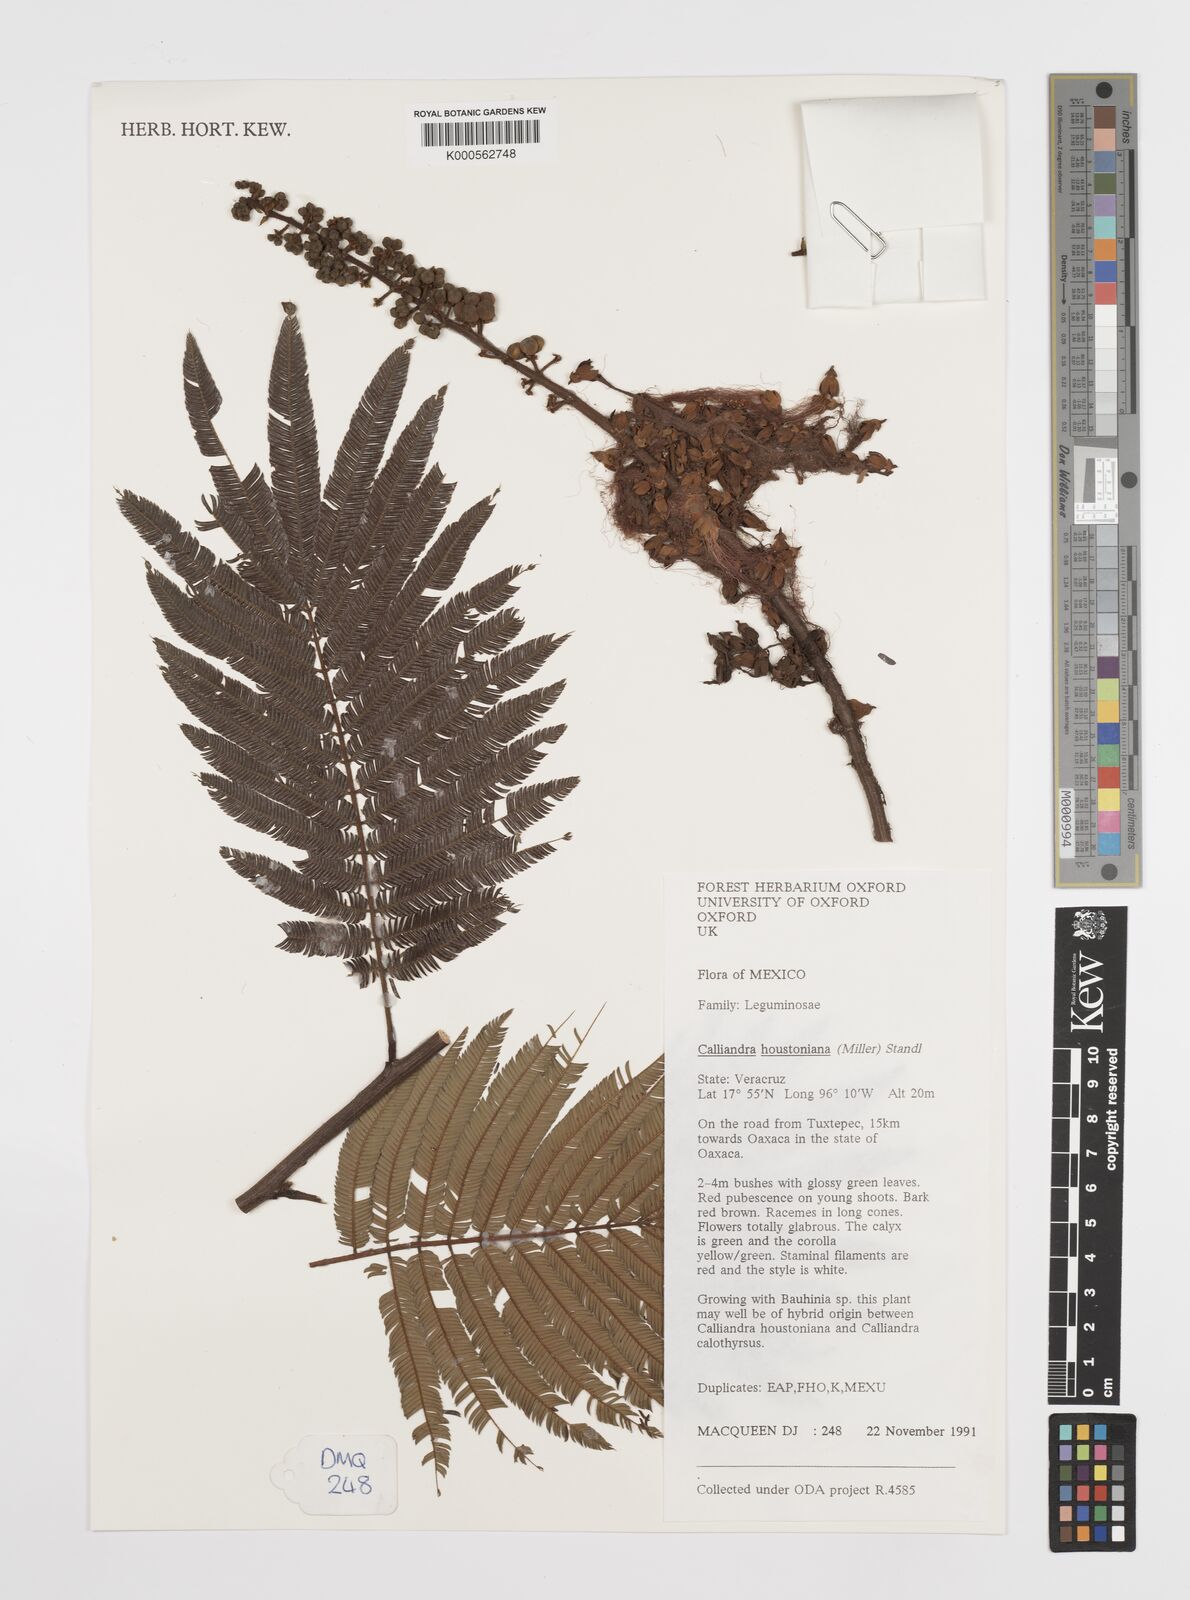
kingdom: Plantae
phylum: Tracheophyta
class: Magnoliopsida
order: Fabales
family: Fabaceae
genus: Calliandra
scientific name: Calliandra houstoniana
